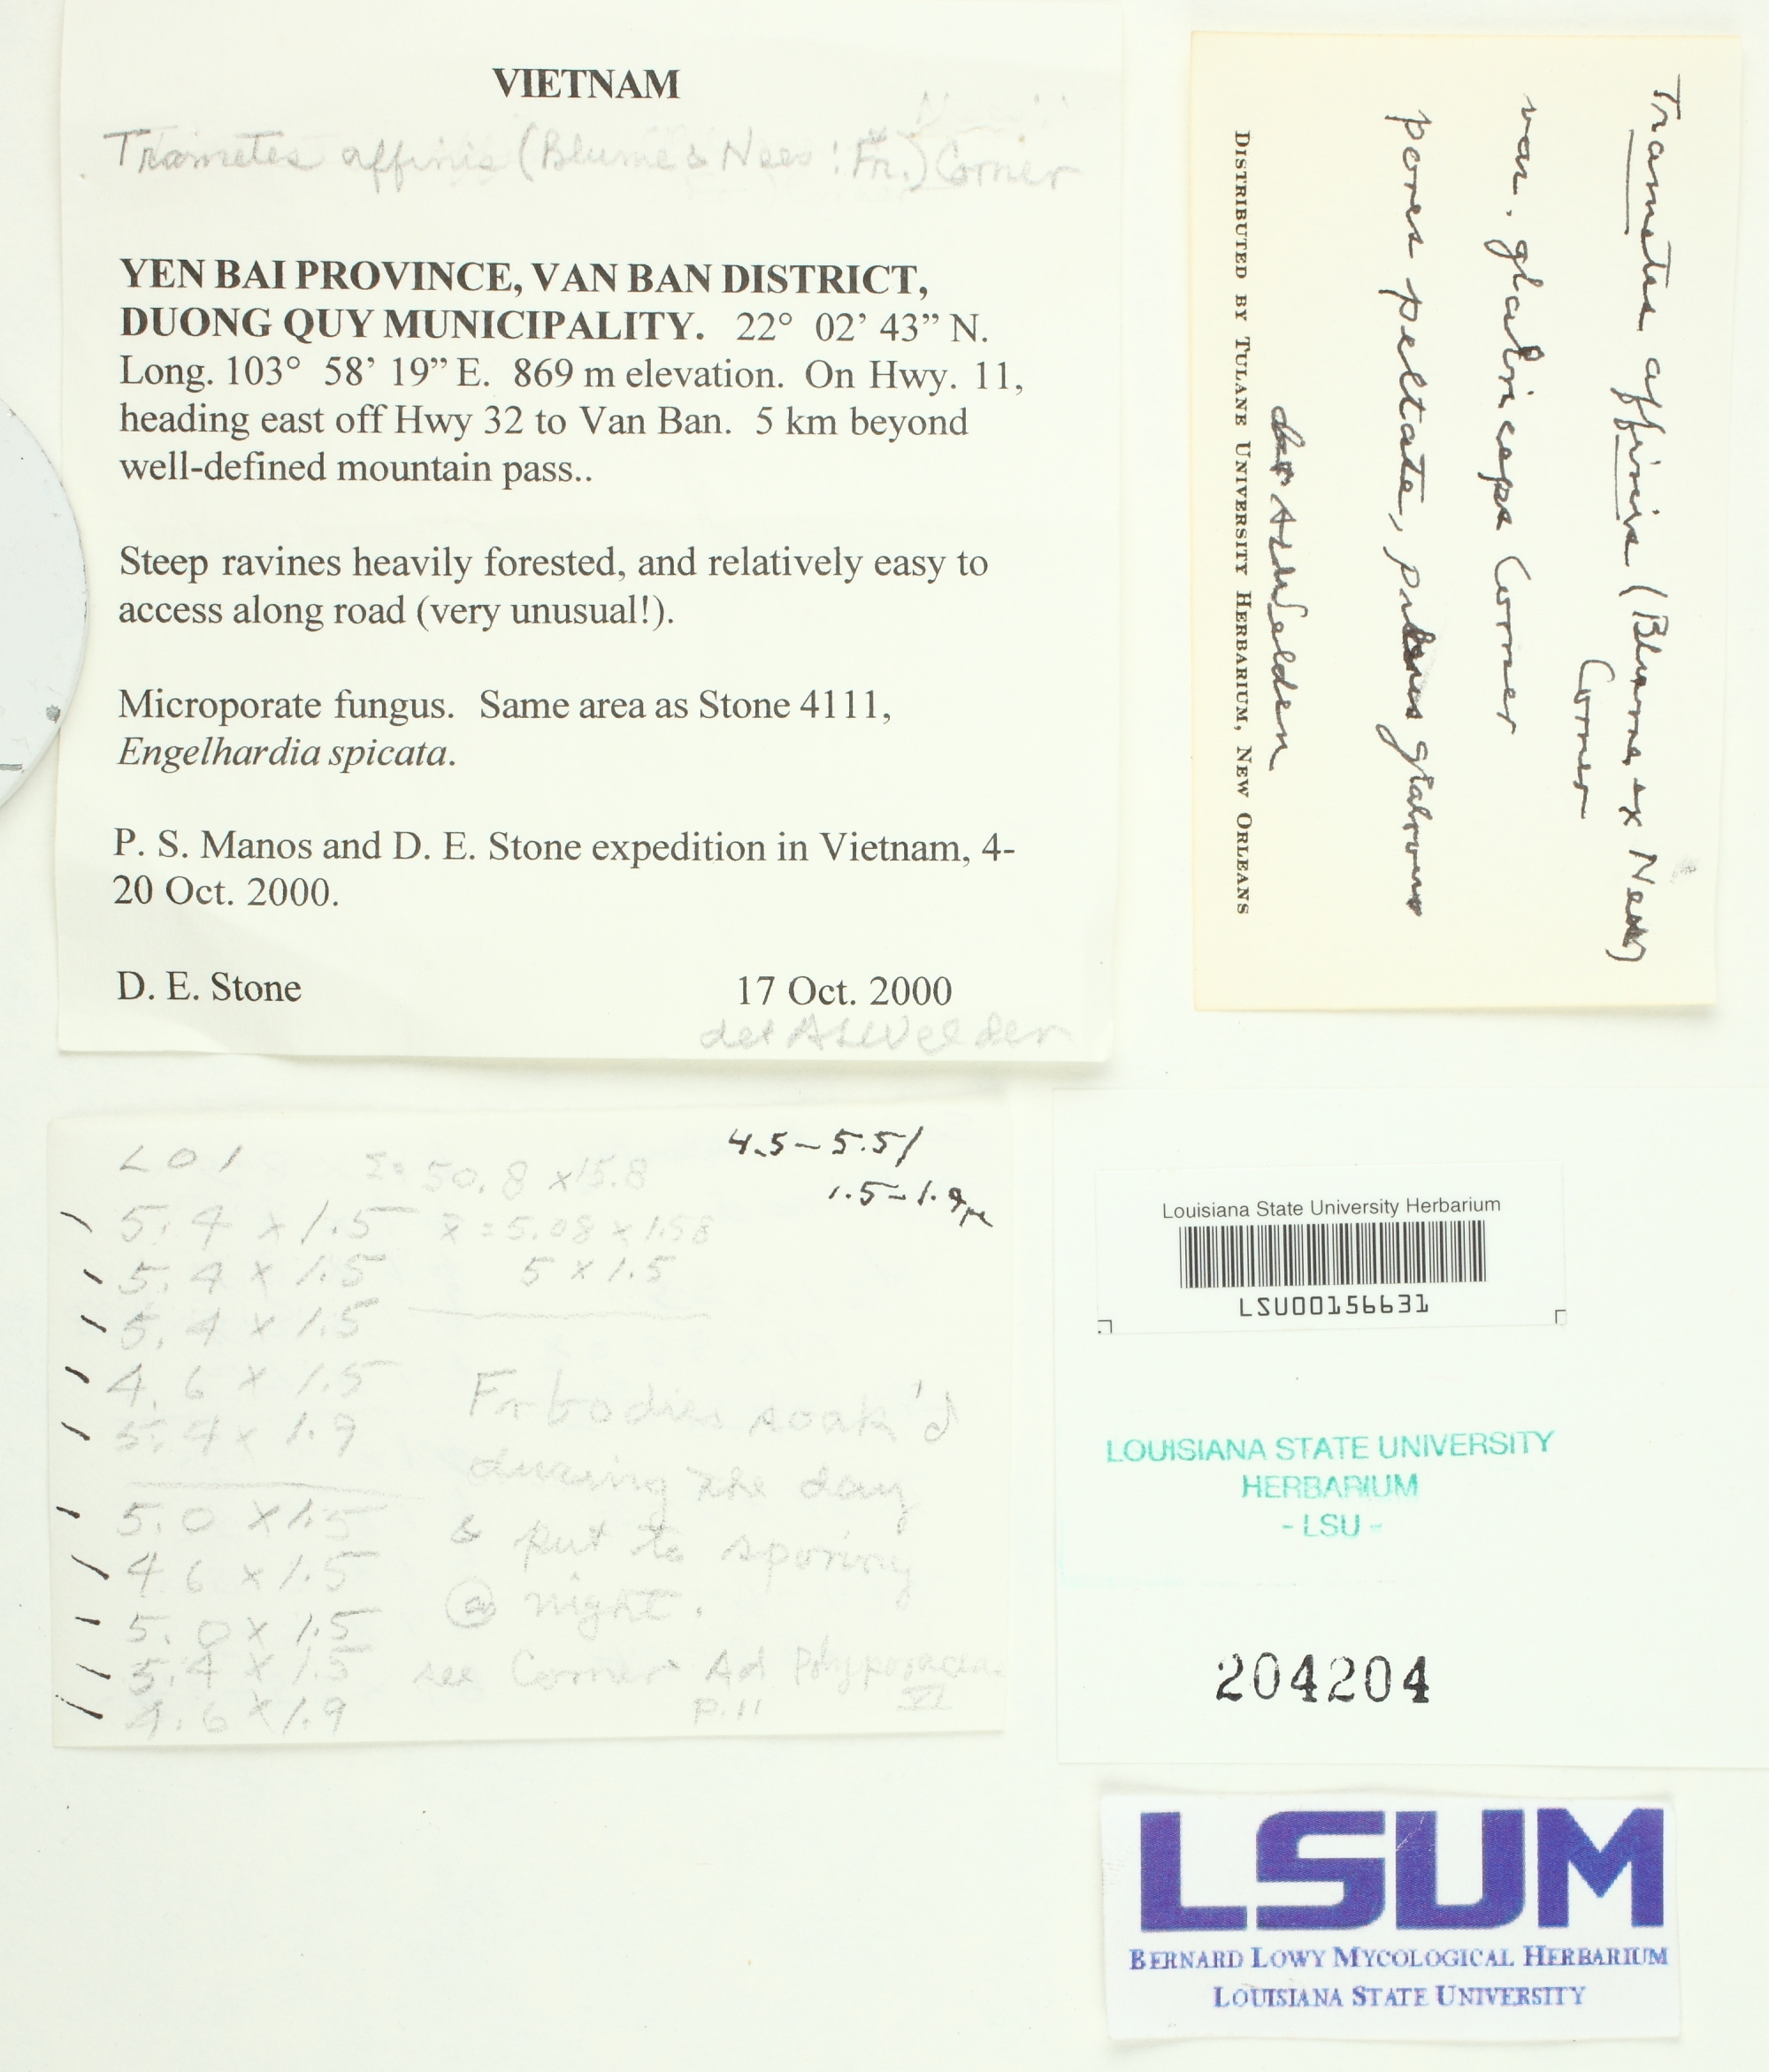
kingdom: Fungi
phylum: Basidiomycota
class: Agaricomycetes
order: Polyporales
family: Polyporaceae
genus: Microporus
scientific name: Microporus affinis
